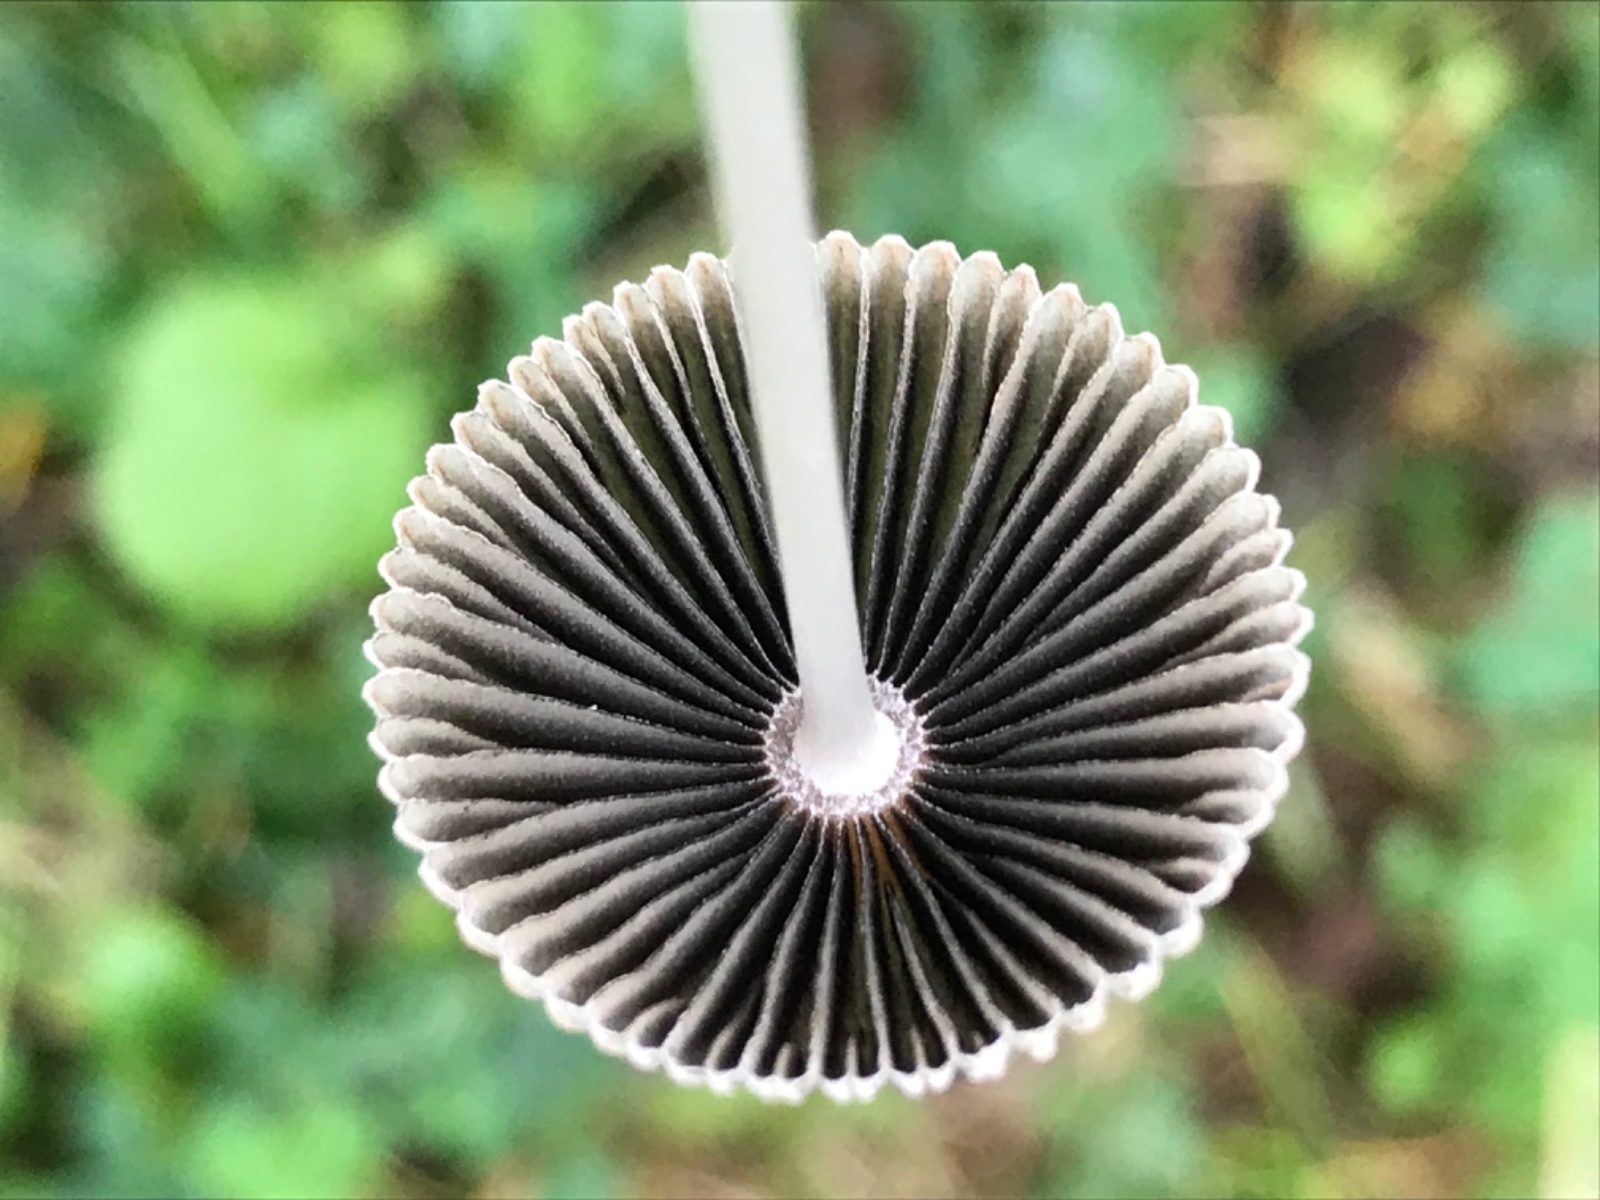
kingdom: Fungi
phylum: Basidiomycota
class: Agaricomycetes
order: Agaricales
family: Psathyrellaceae
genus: Parasola
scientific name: Parasola
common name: hjulhat
